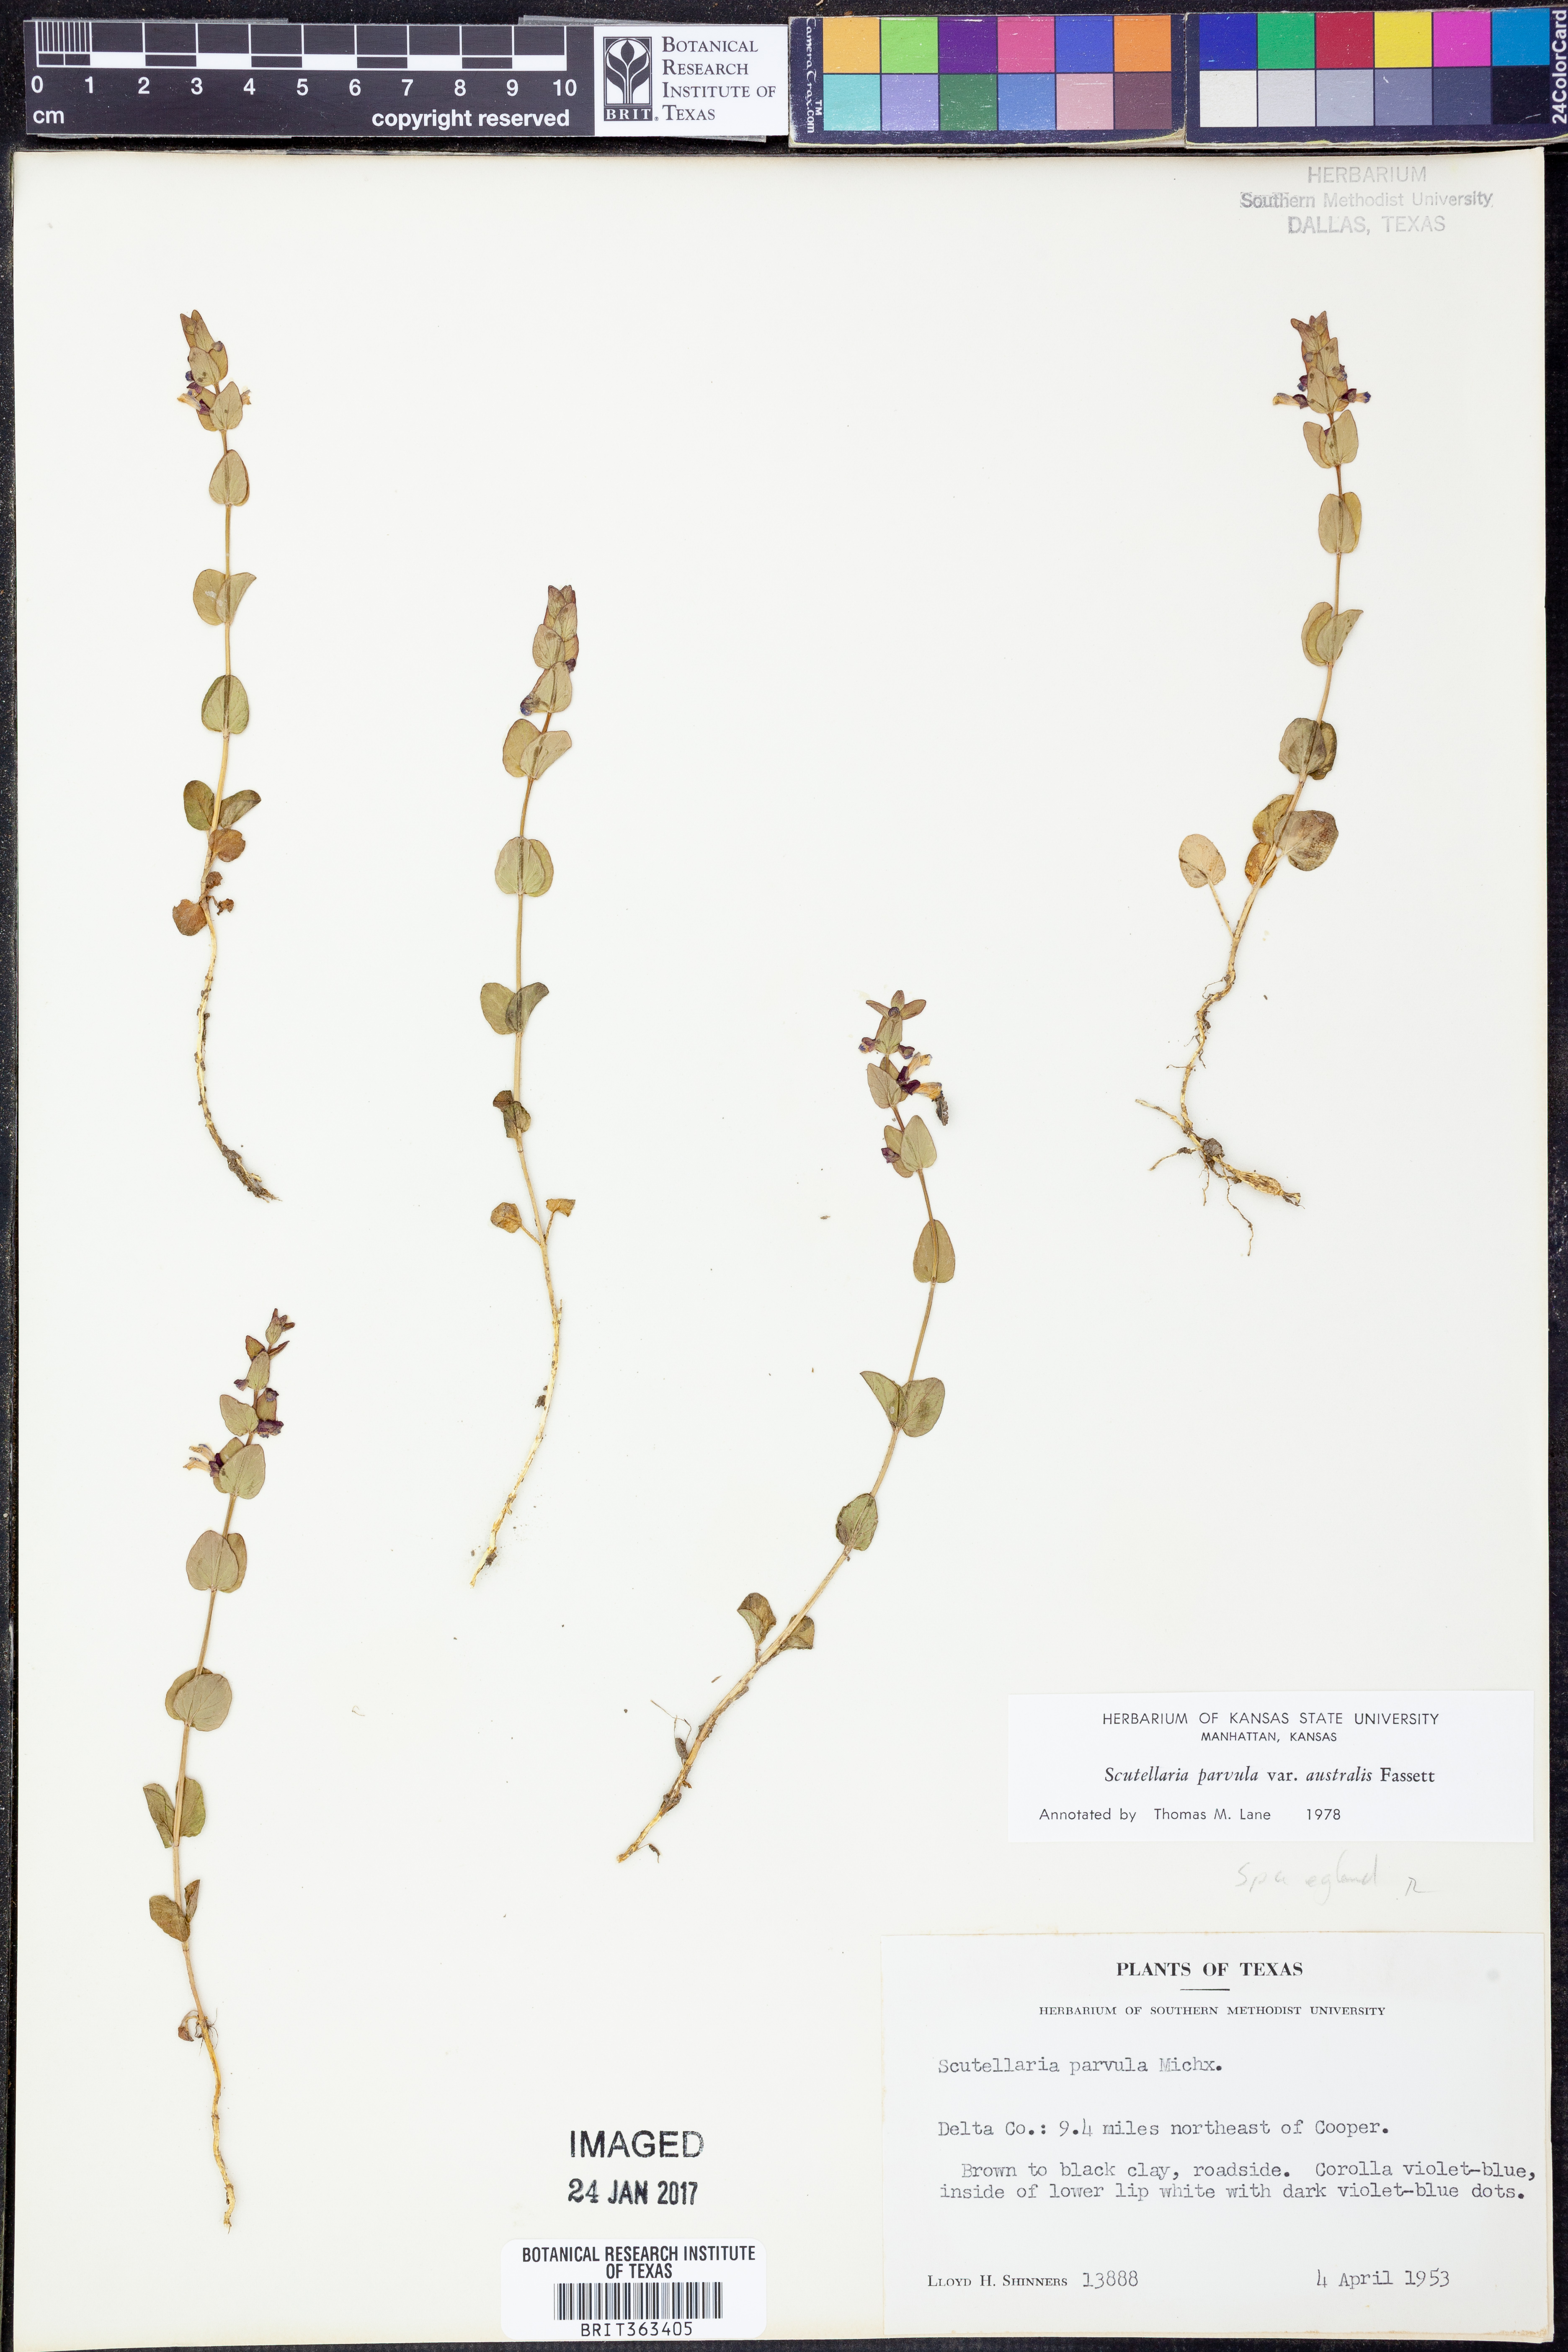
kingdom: Plantae
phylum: Tracheophyta
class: Magnoliopsida
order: Lamiales
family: Lamiaceae
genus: Scutellaria
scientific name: Scutellaria parvula
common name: Little scullcap
